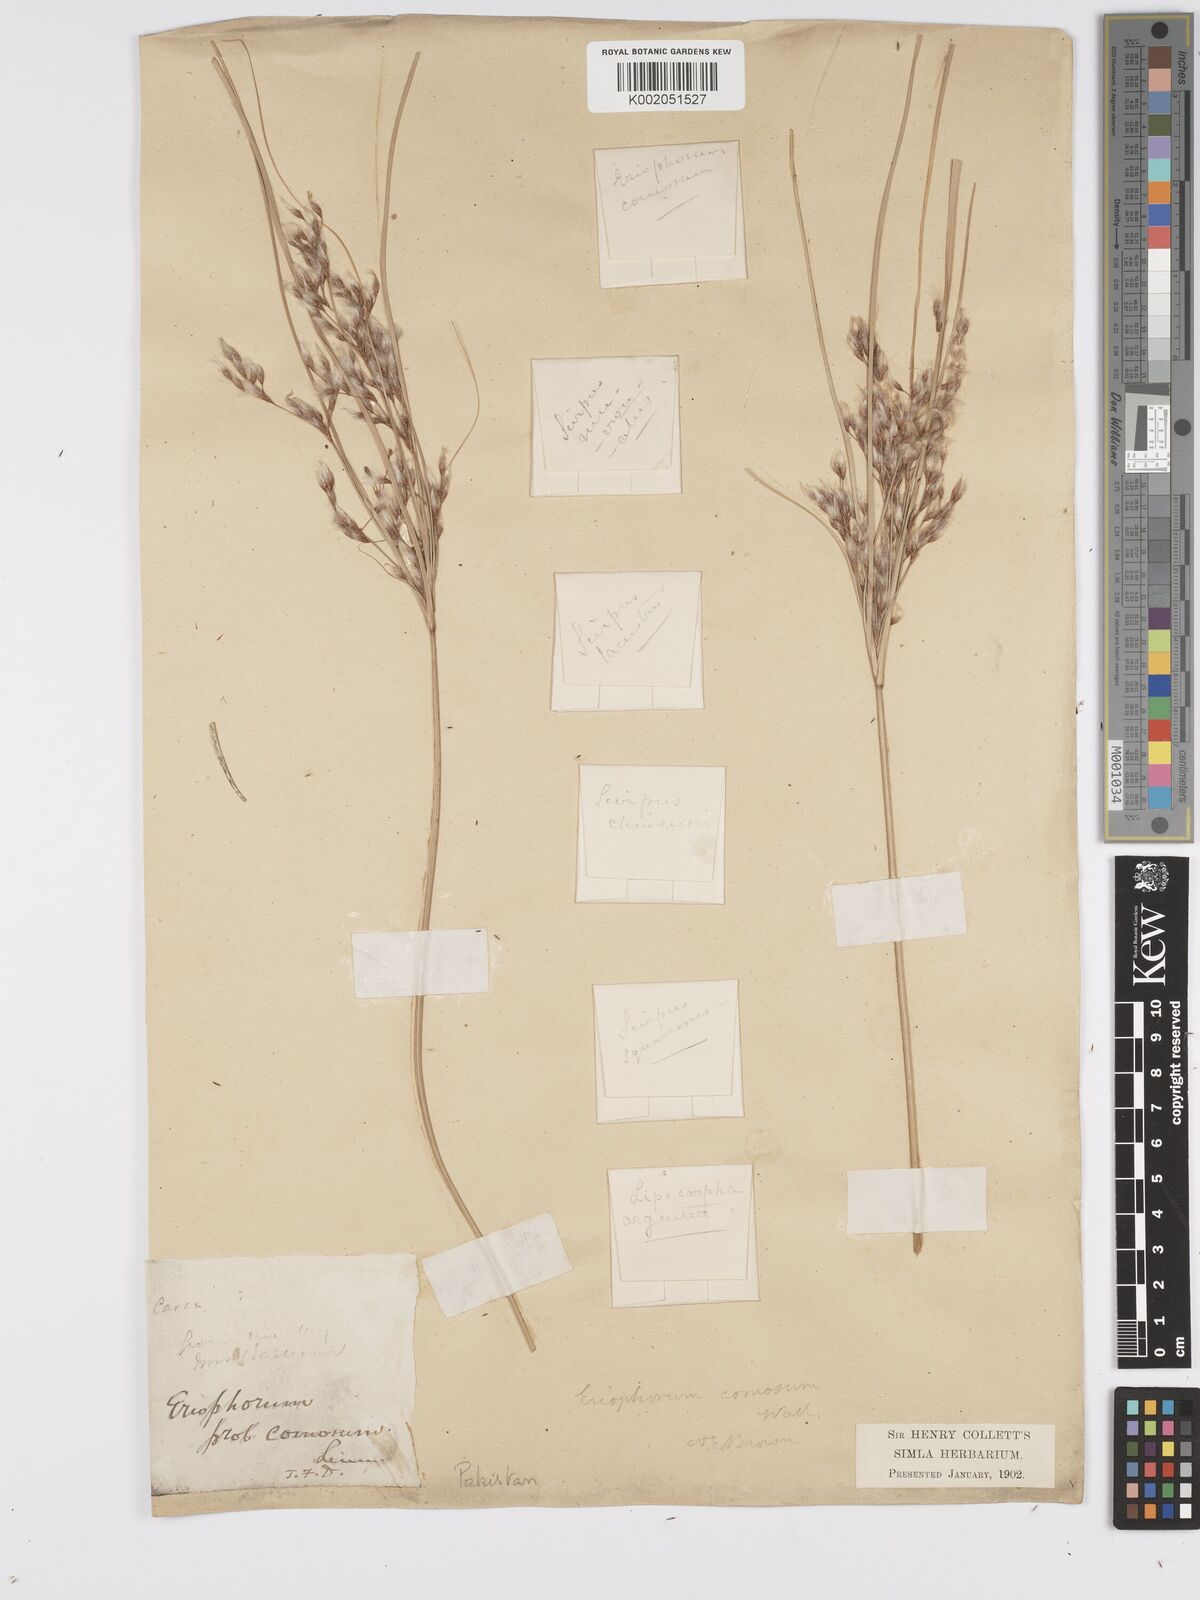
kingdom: Plantae
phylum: Tracheophyta
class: Liliopsida
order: Poales
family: Cyperaceae
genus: Erioscirpus
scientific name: Erioscirpus comosus
